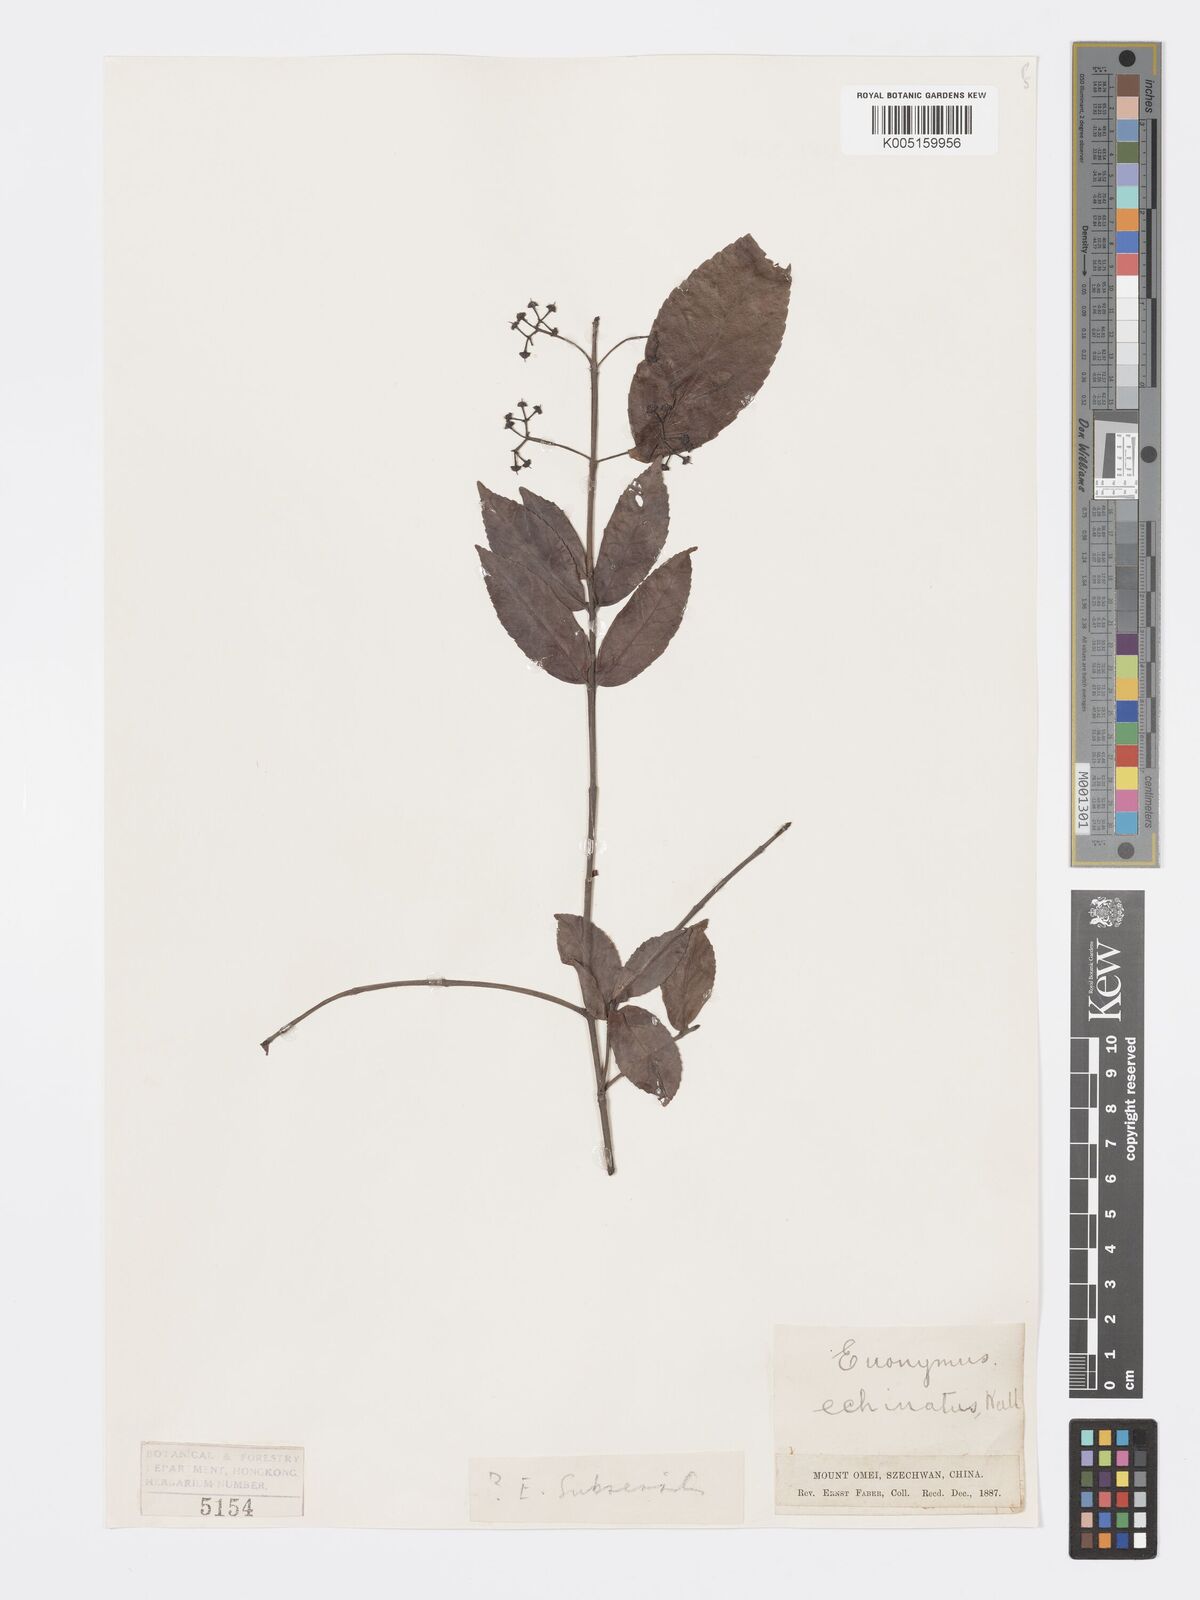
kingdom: Plantae
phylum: Tracheophyta
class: Magnoliopsida
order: Celastrales
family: Celastraceae
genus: Euonymus
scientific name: Euonymus echinatus
